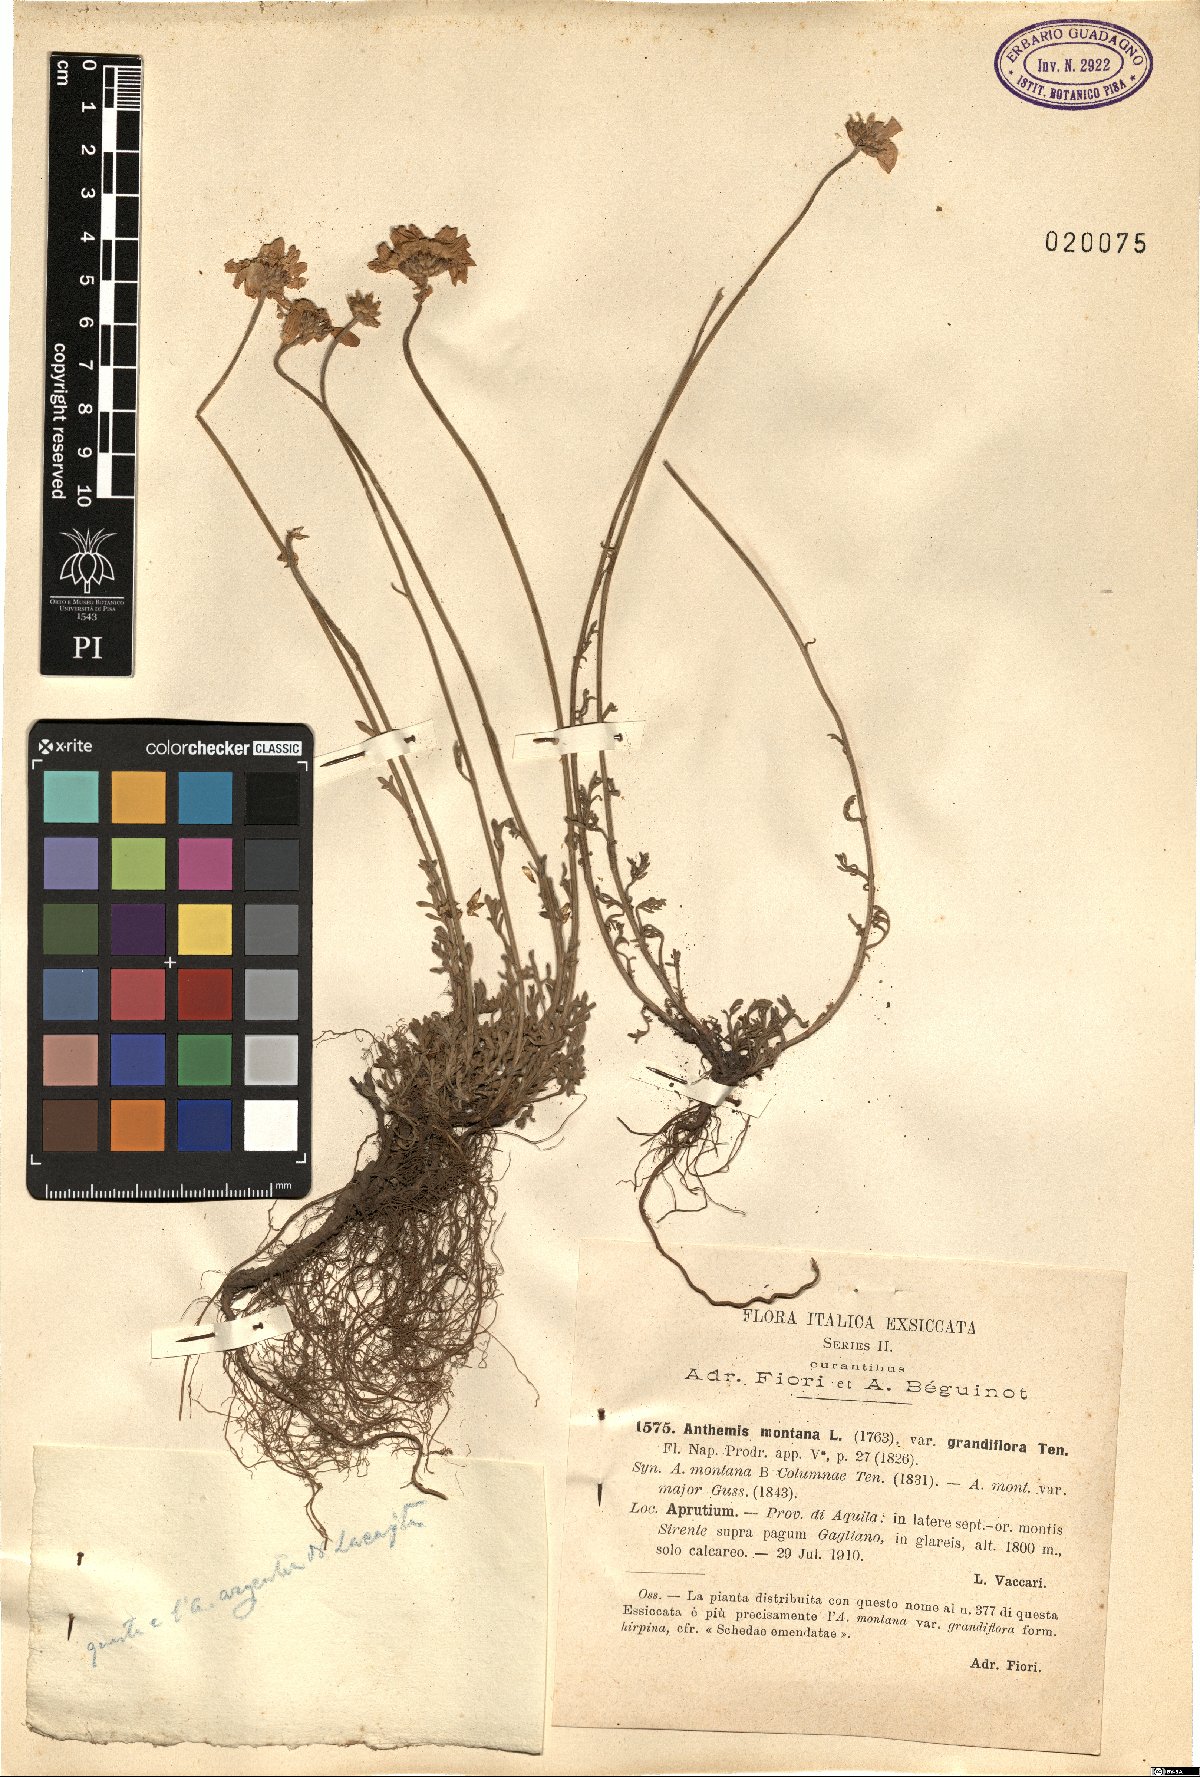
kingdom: Plantae
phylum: Tracheophyta
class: Magnoliopsida
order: Asterales
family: Asteraceae
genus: Anthemis
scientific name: Anthemis cretica
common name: Mountain dog-daisy
